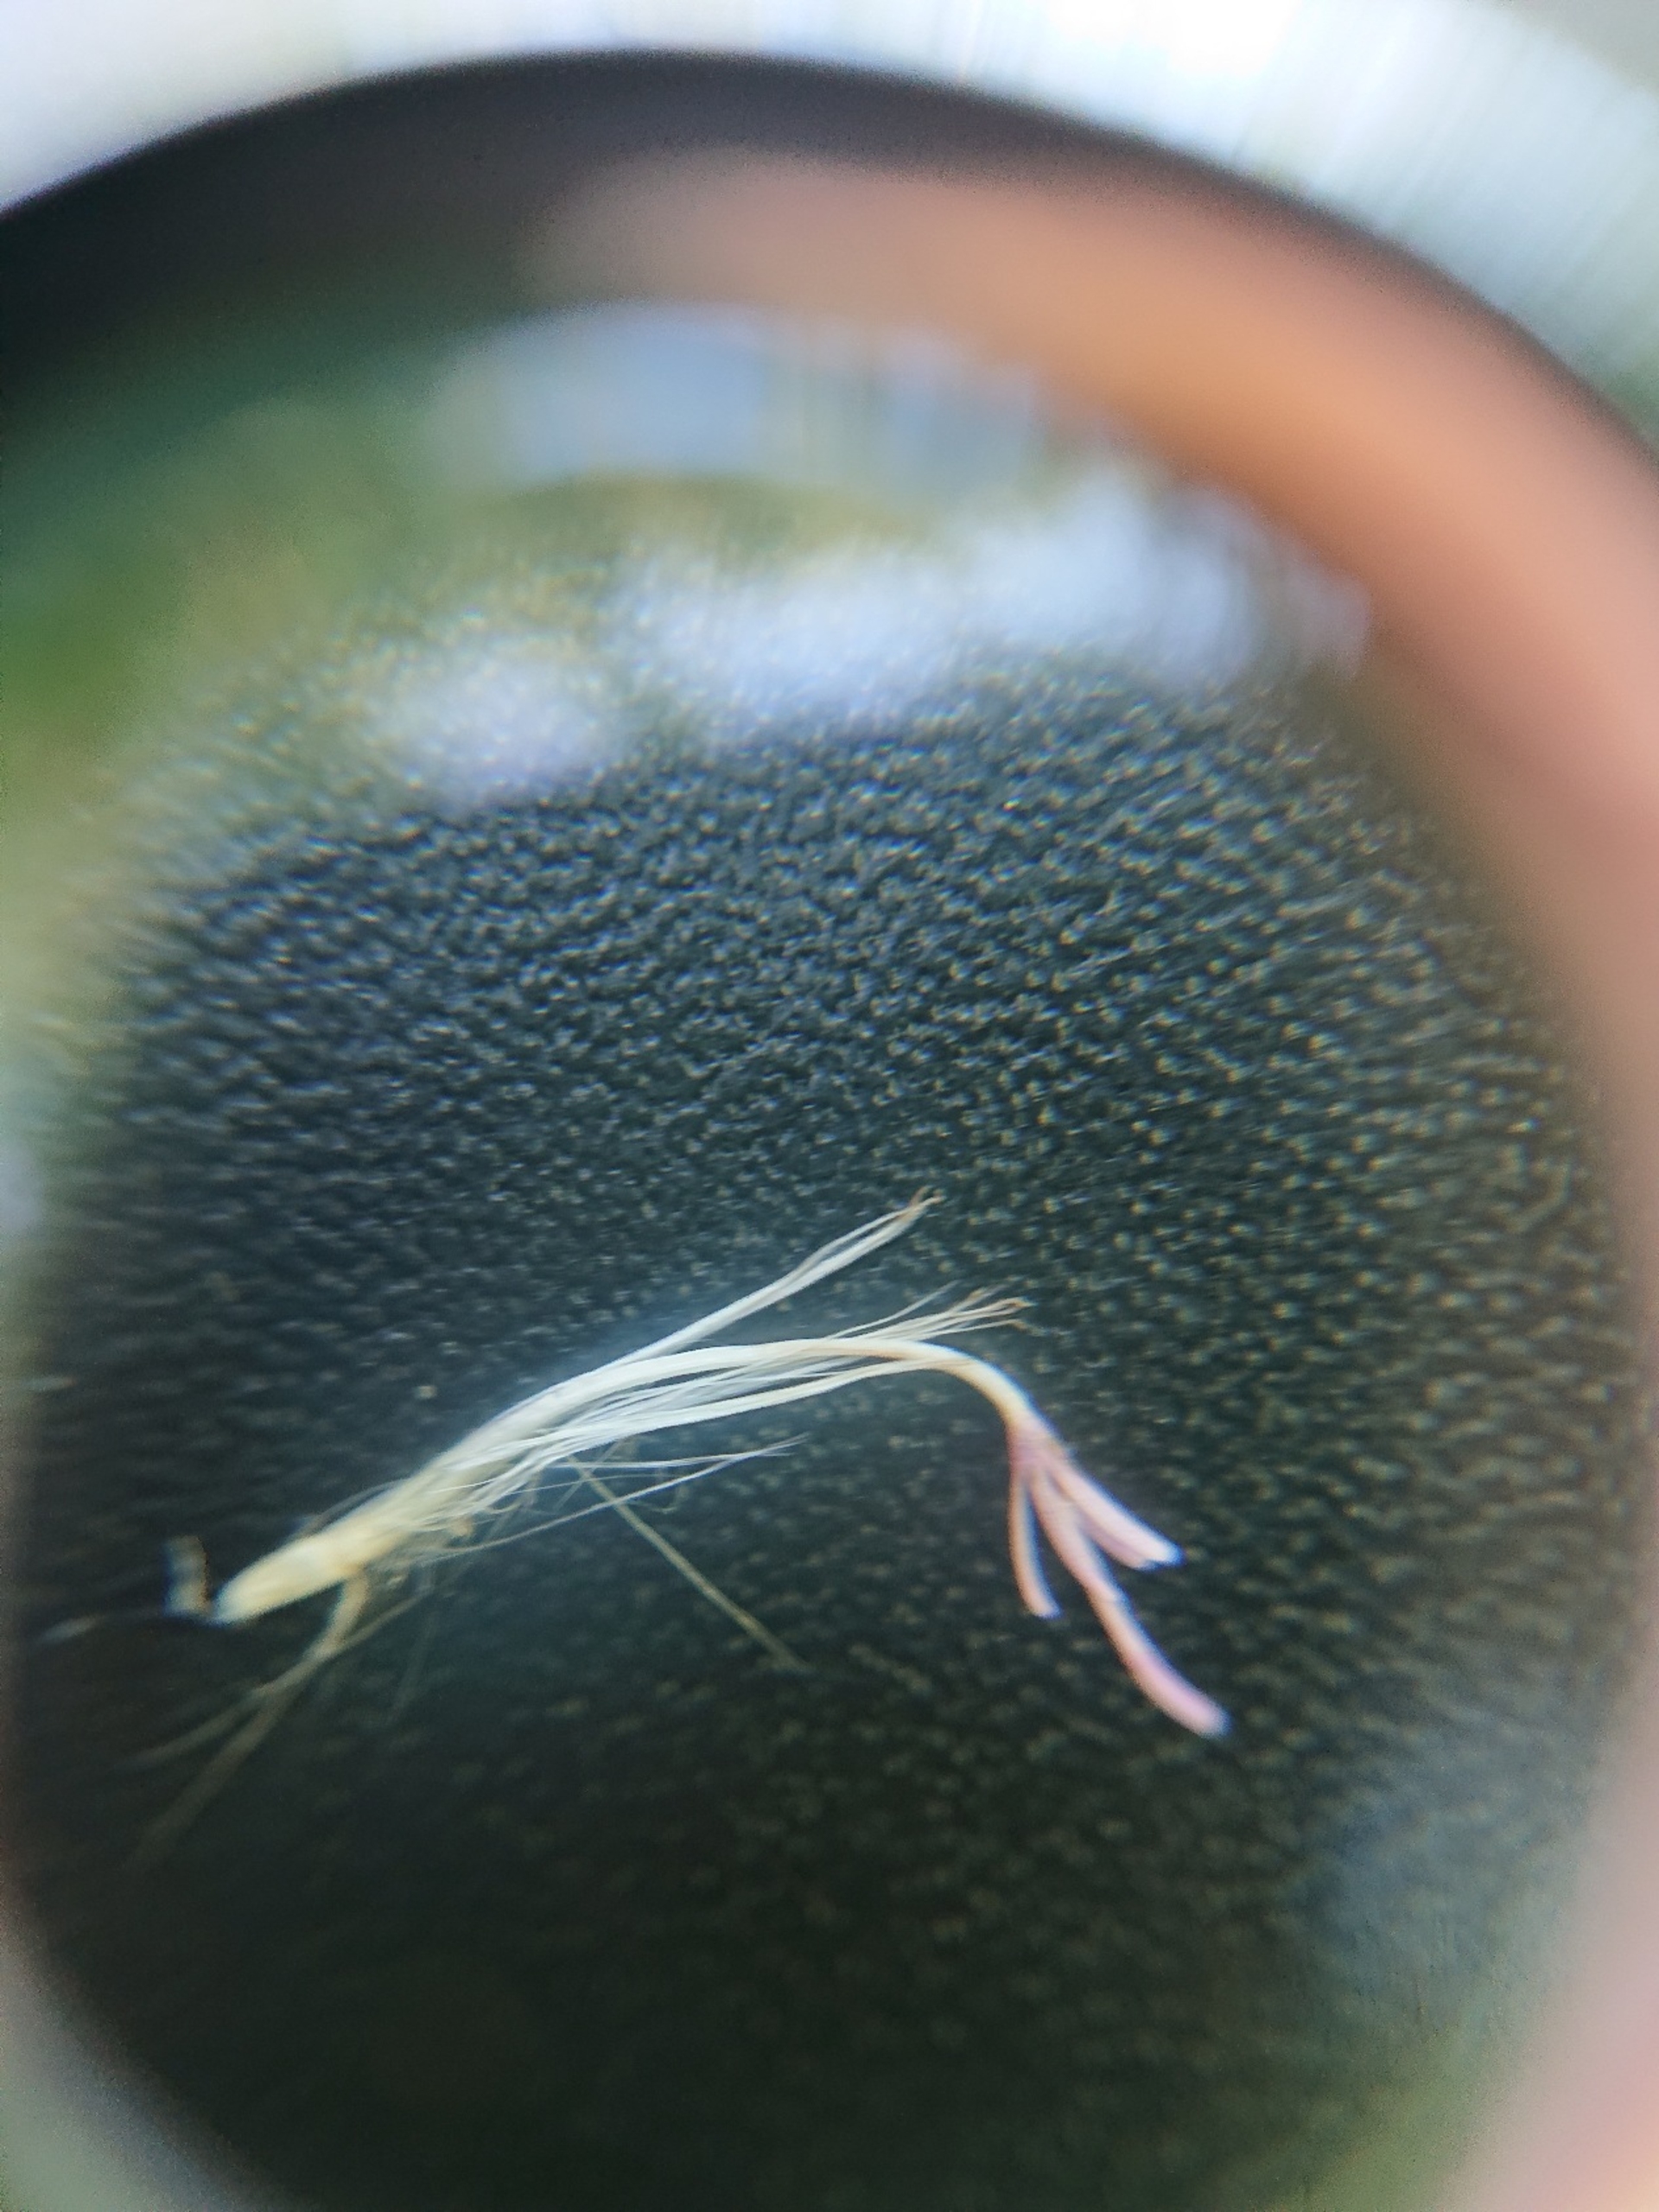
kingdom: Plantae
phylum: Tracheophyta
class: Magnoliopsida
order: Asterales
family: Asteraceae
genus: Cirsium
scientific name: Cirsium arvense
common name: Ager-tidsel
